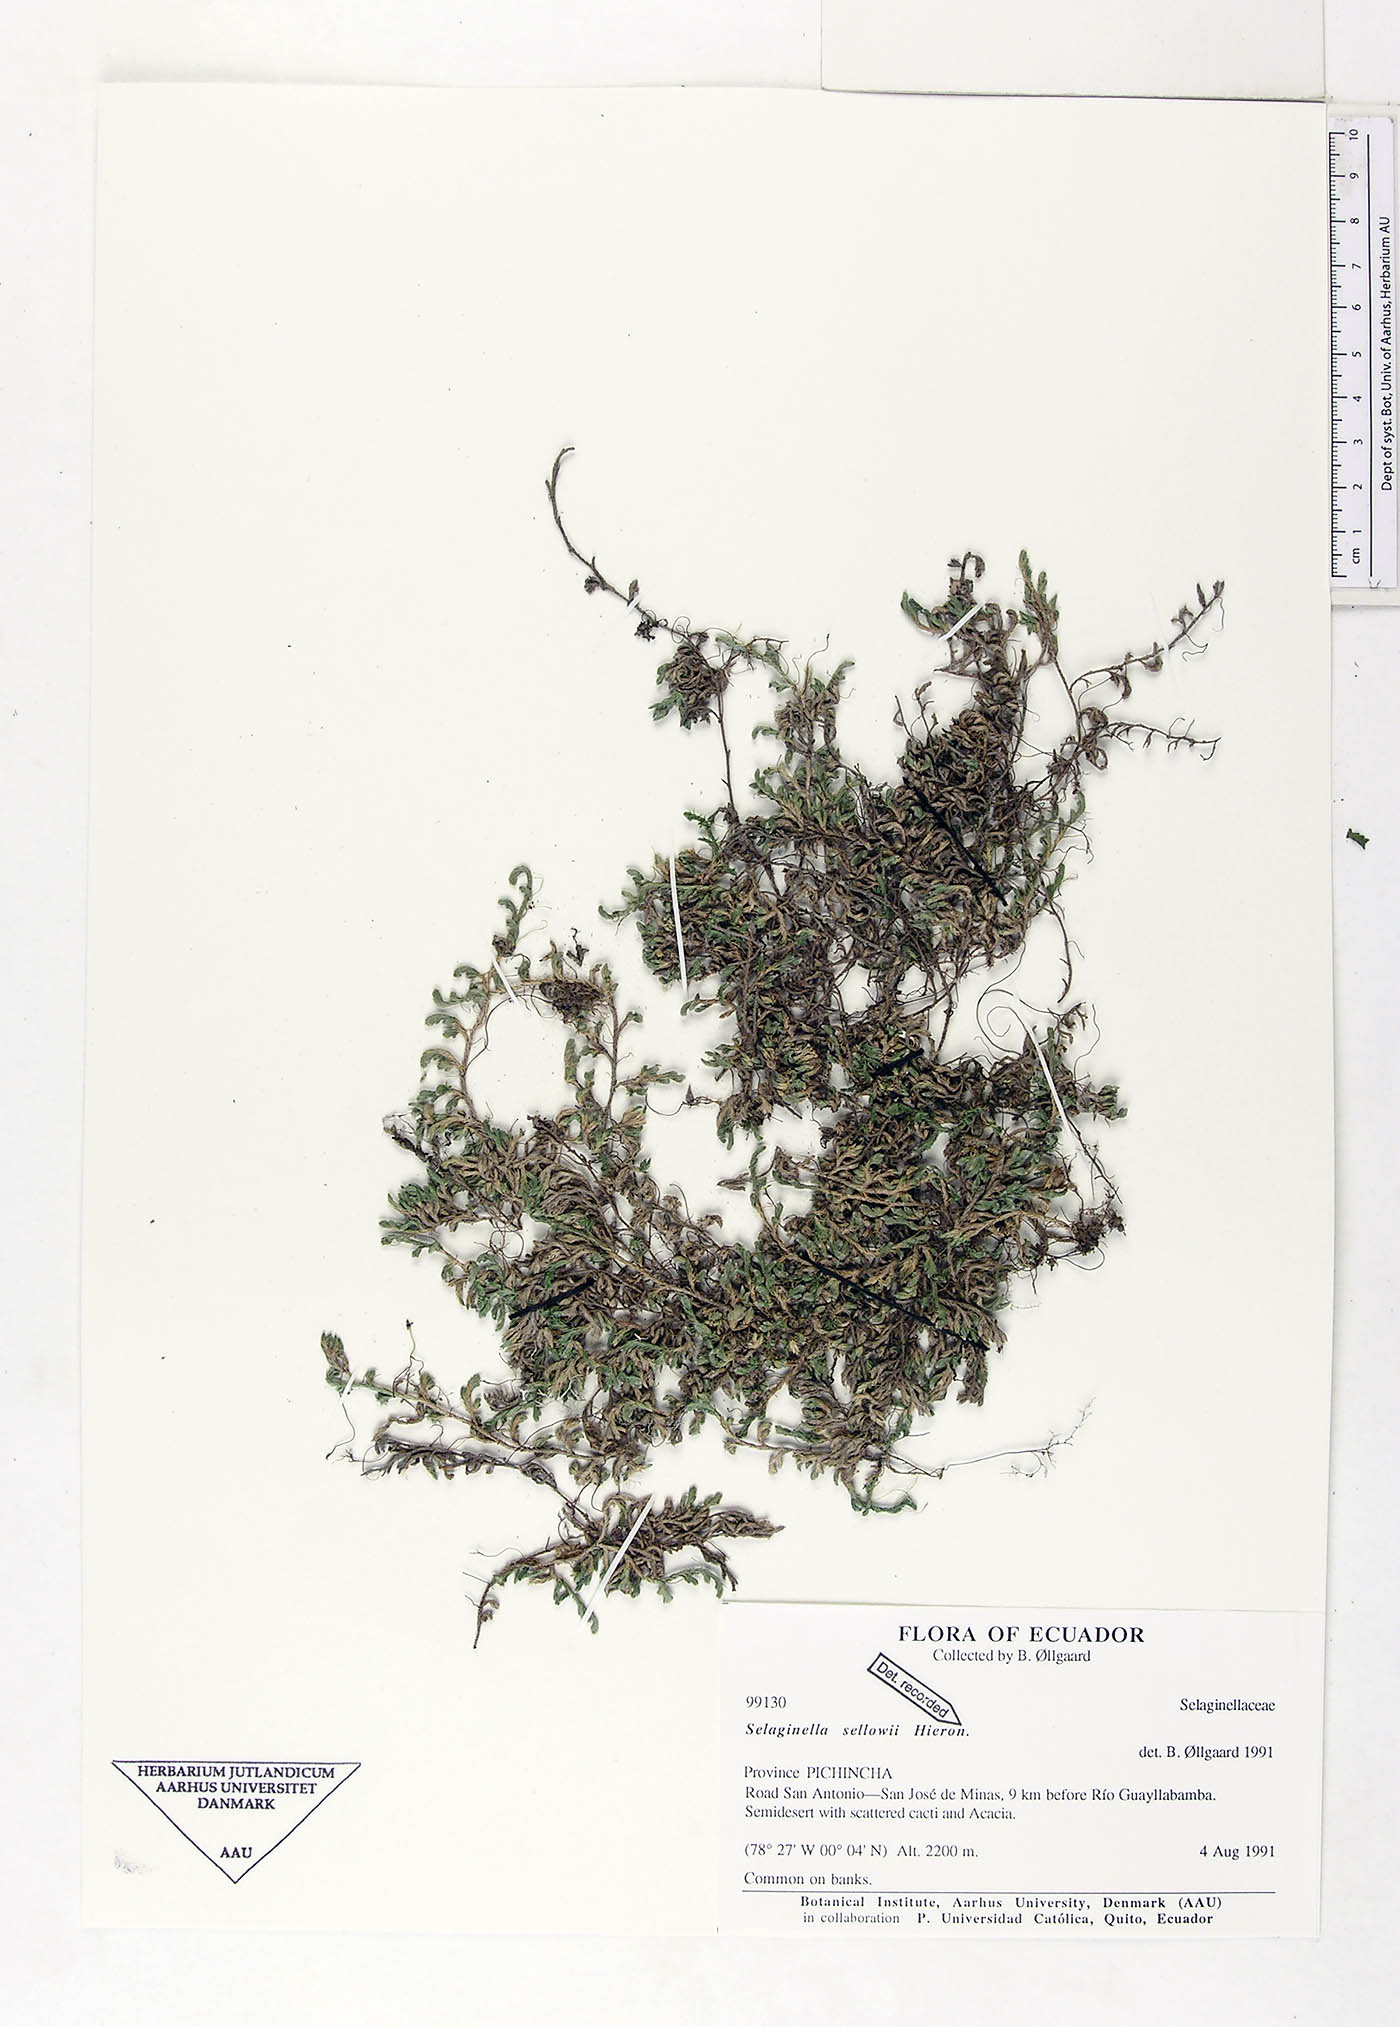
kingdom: Plantae
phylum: Tracheophyta
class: Lycopodiopsida
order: Selaginellales
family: Selaginellaceae
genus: Selaginella
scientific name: Selaginella sellowii
